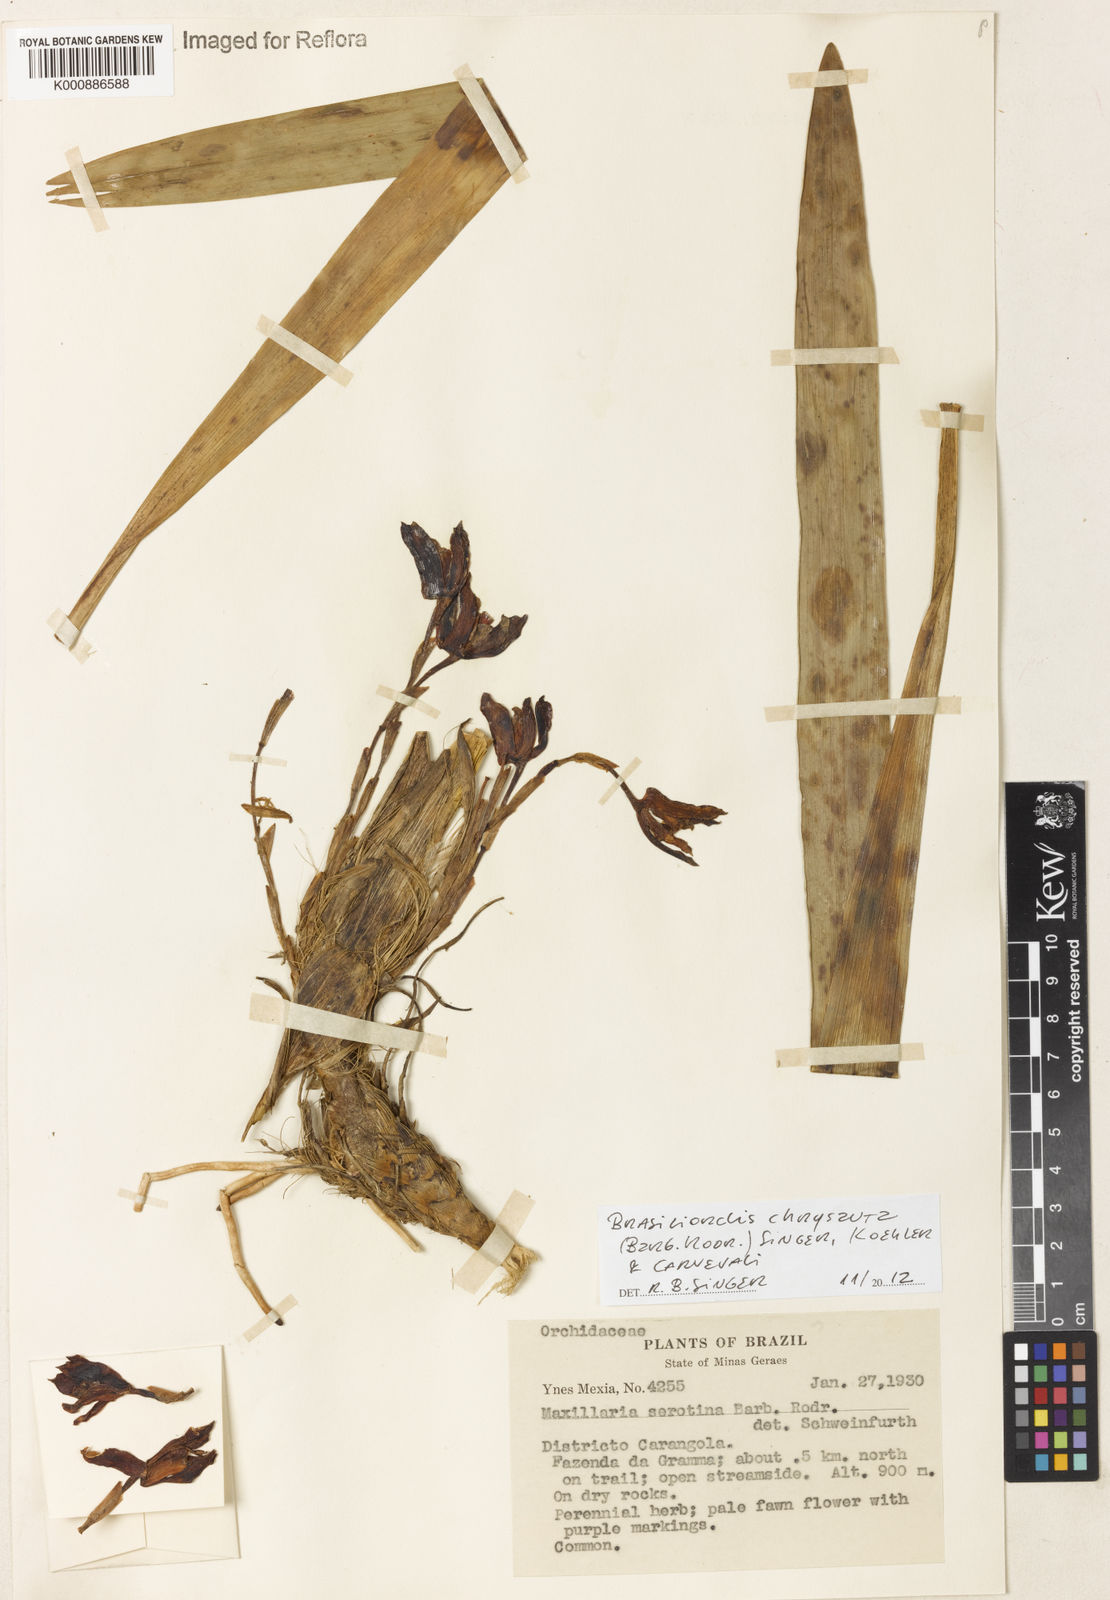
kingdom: Plantae
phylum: Tracheophyta
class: Liliopsida
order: Asparagales
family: Orchidaceae
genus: Maxillaria
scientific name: Maxillaria chrysantha
